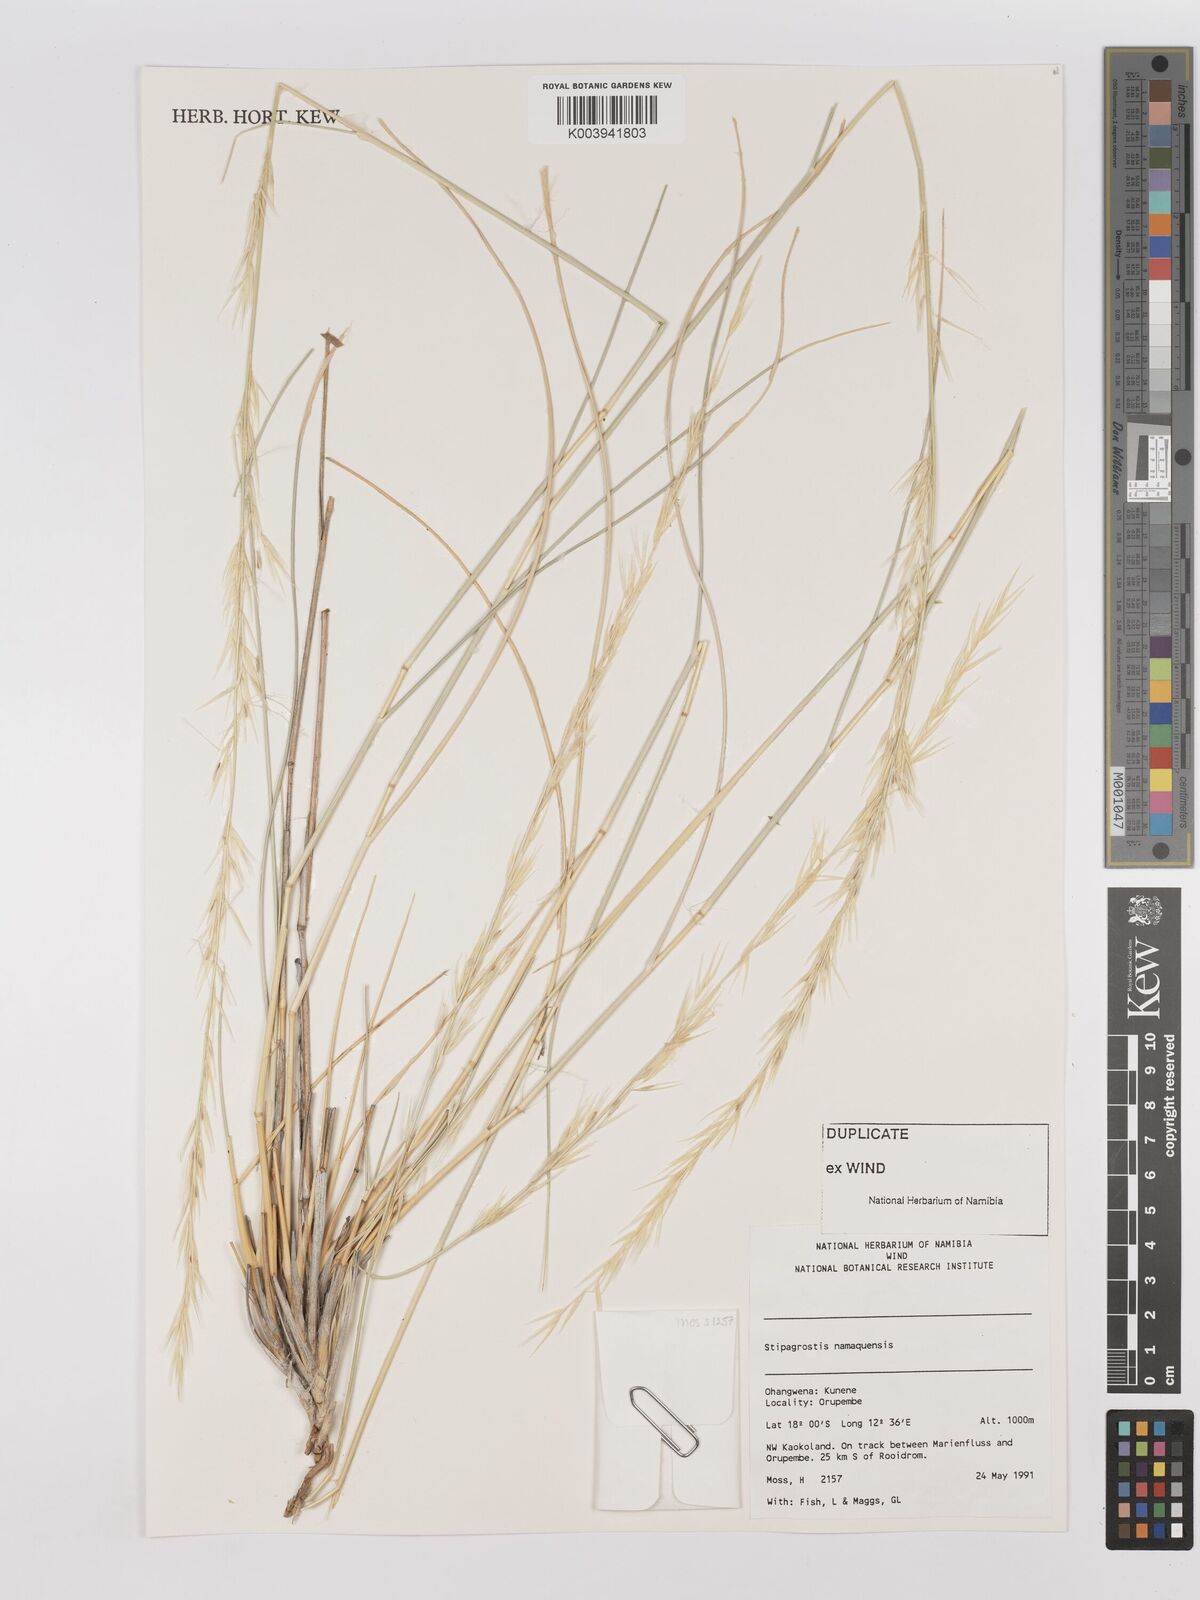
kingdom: Plantae
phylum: Tracheophyta
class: Liliopsida
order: Poales
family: Poaceae
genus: Stipagrostis
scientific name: Stipagrostis namaquensis
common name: River bushman grass
